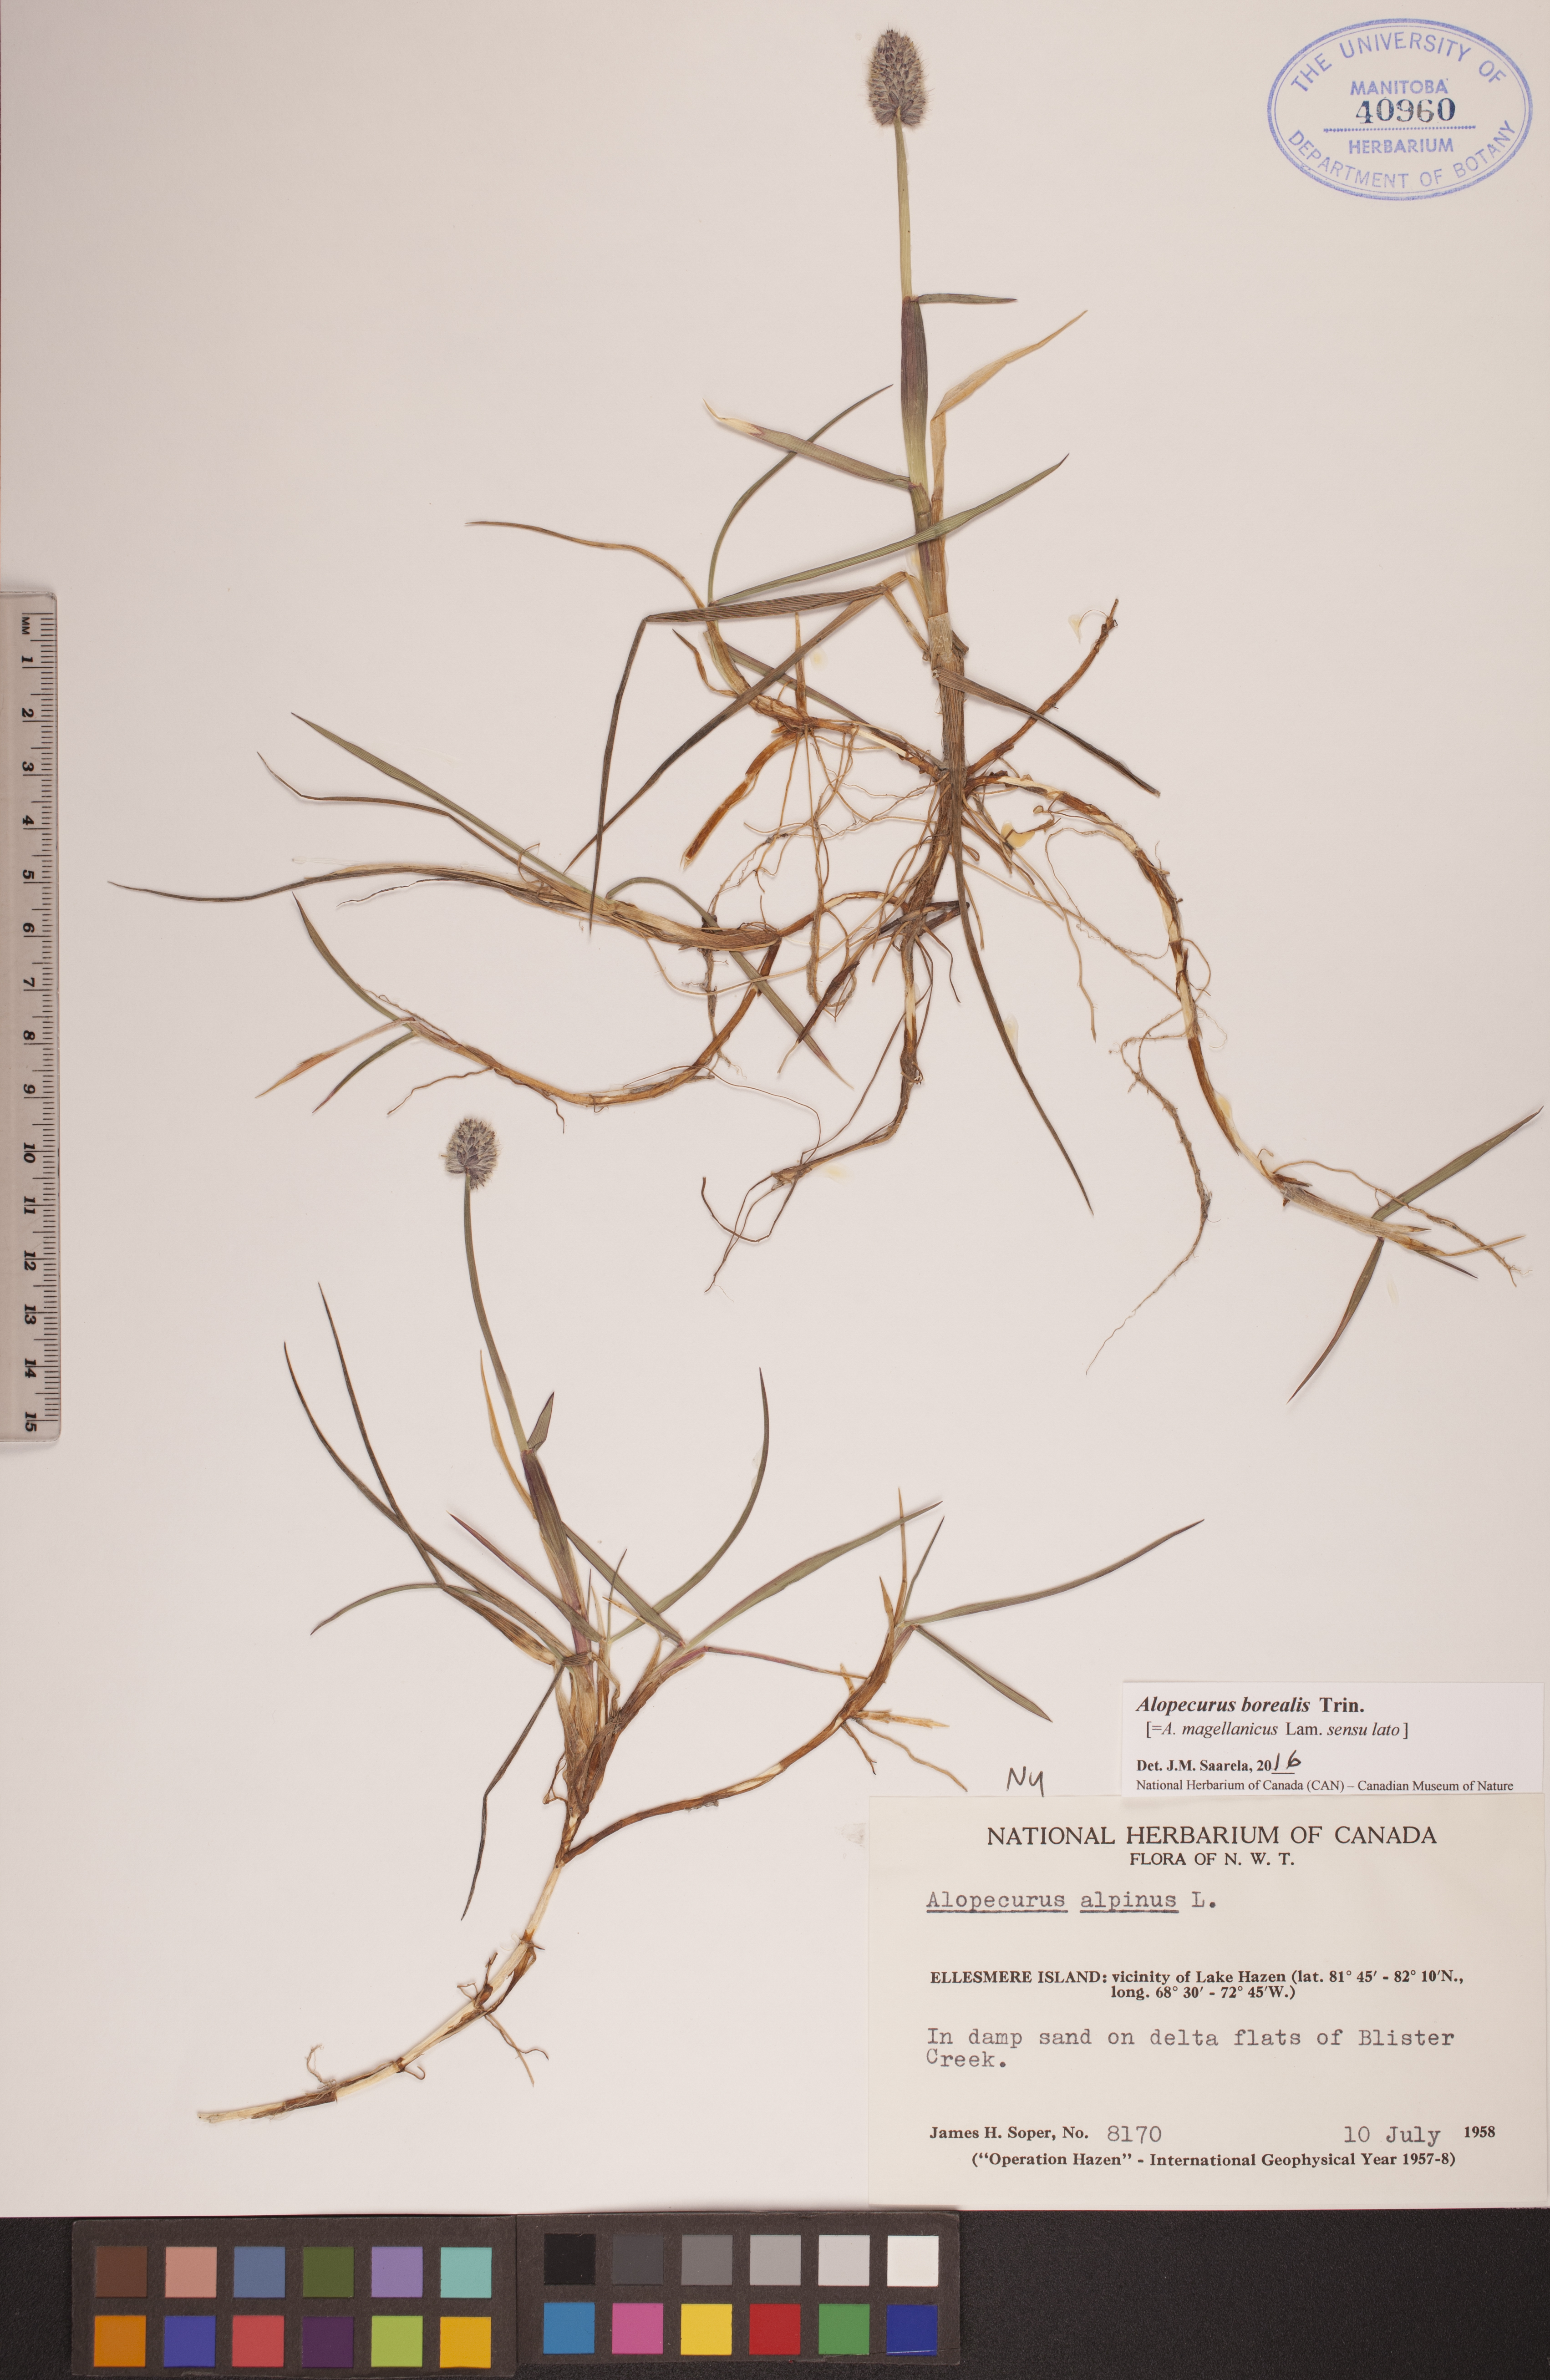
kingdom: Plantae
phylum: Tracheophyta
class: Liliopsida
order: Poales
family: Poaceae
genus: Alopecurus
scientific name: Alopecurus magellanicus
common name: Alpine foxtail
